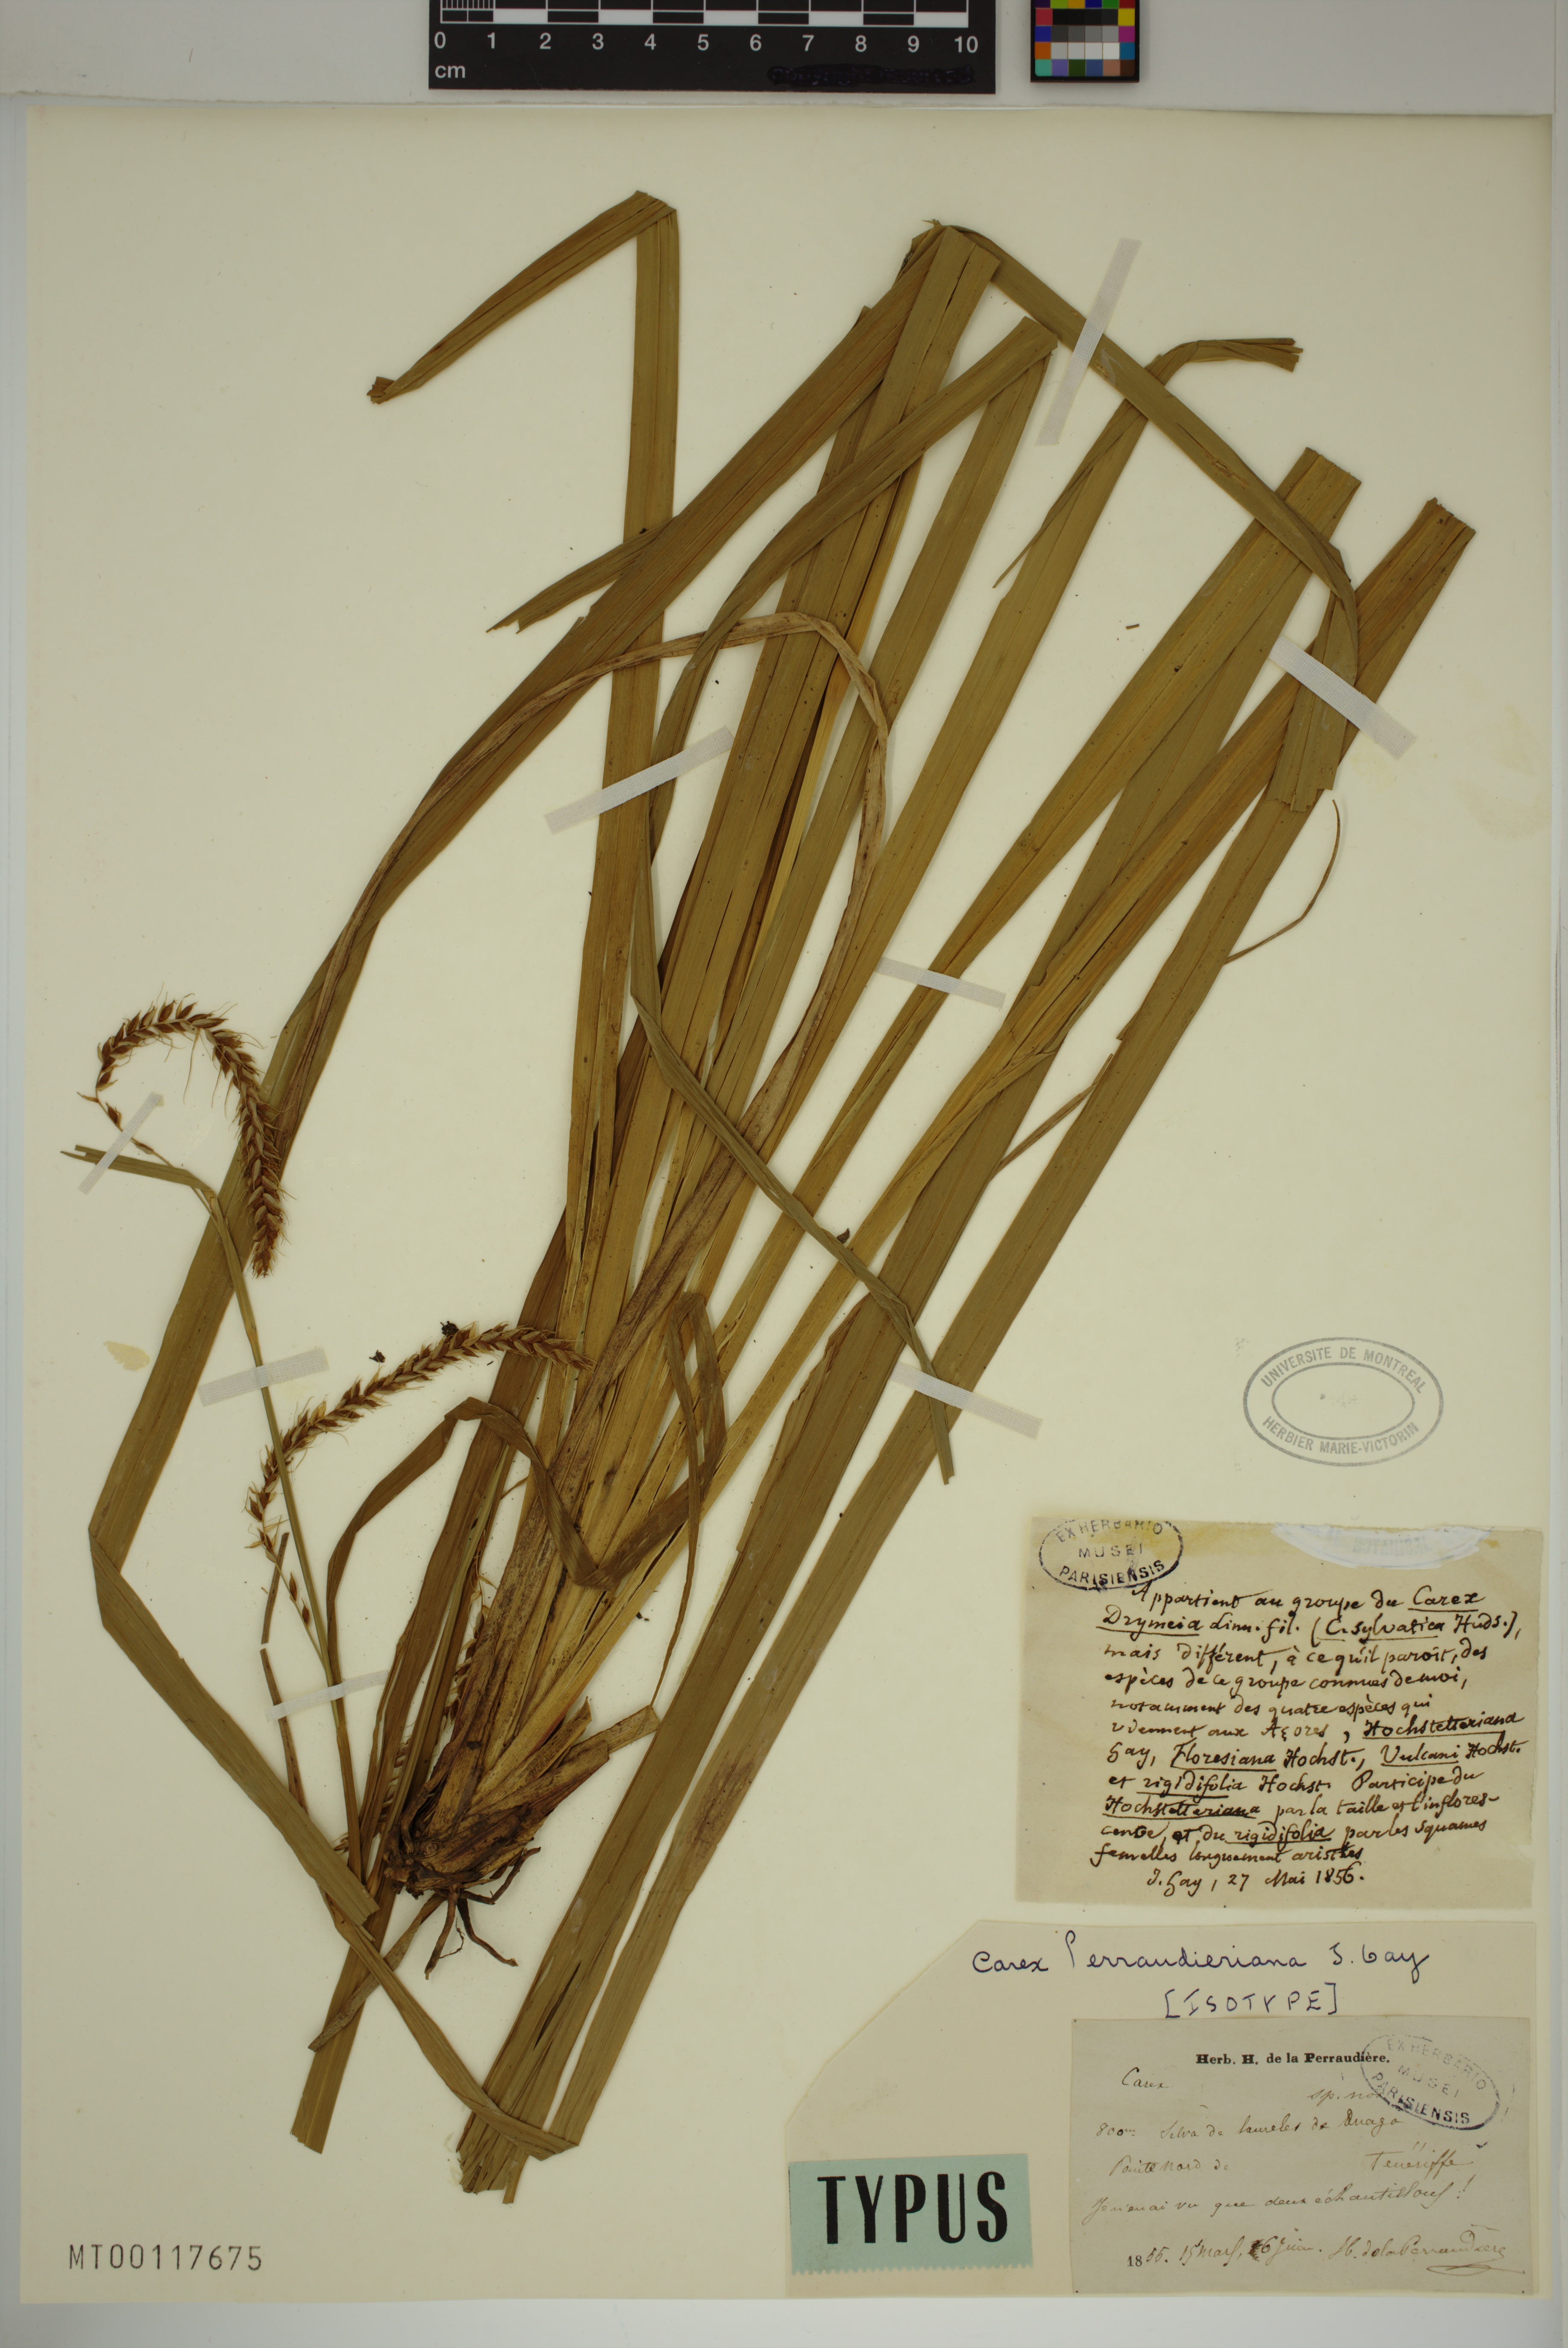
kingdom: Plantae
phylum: Tracheophyta
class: Liliopsida
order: Poales
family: Cyperaceae
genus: Carex
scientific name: Carex perraudieriana
